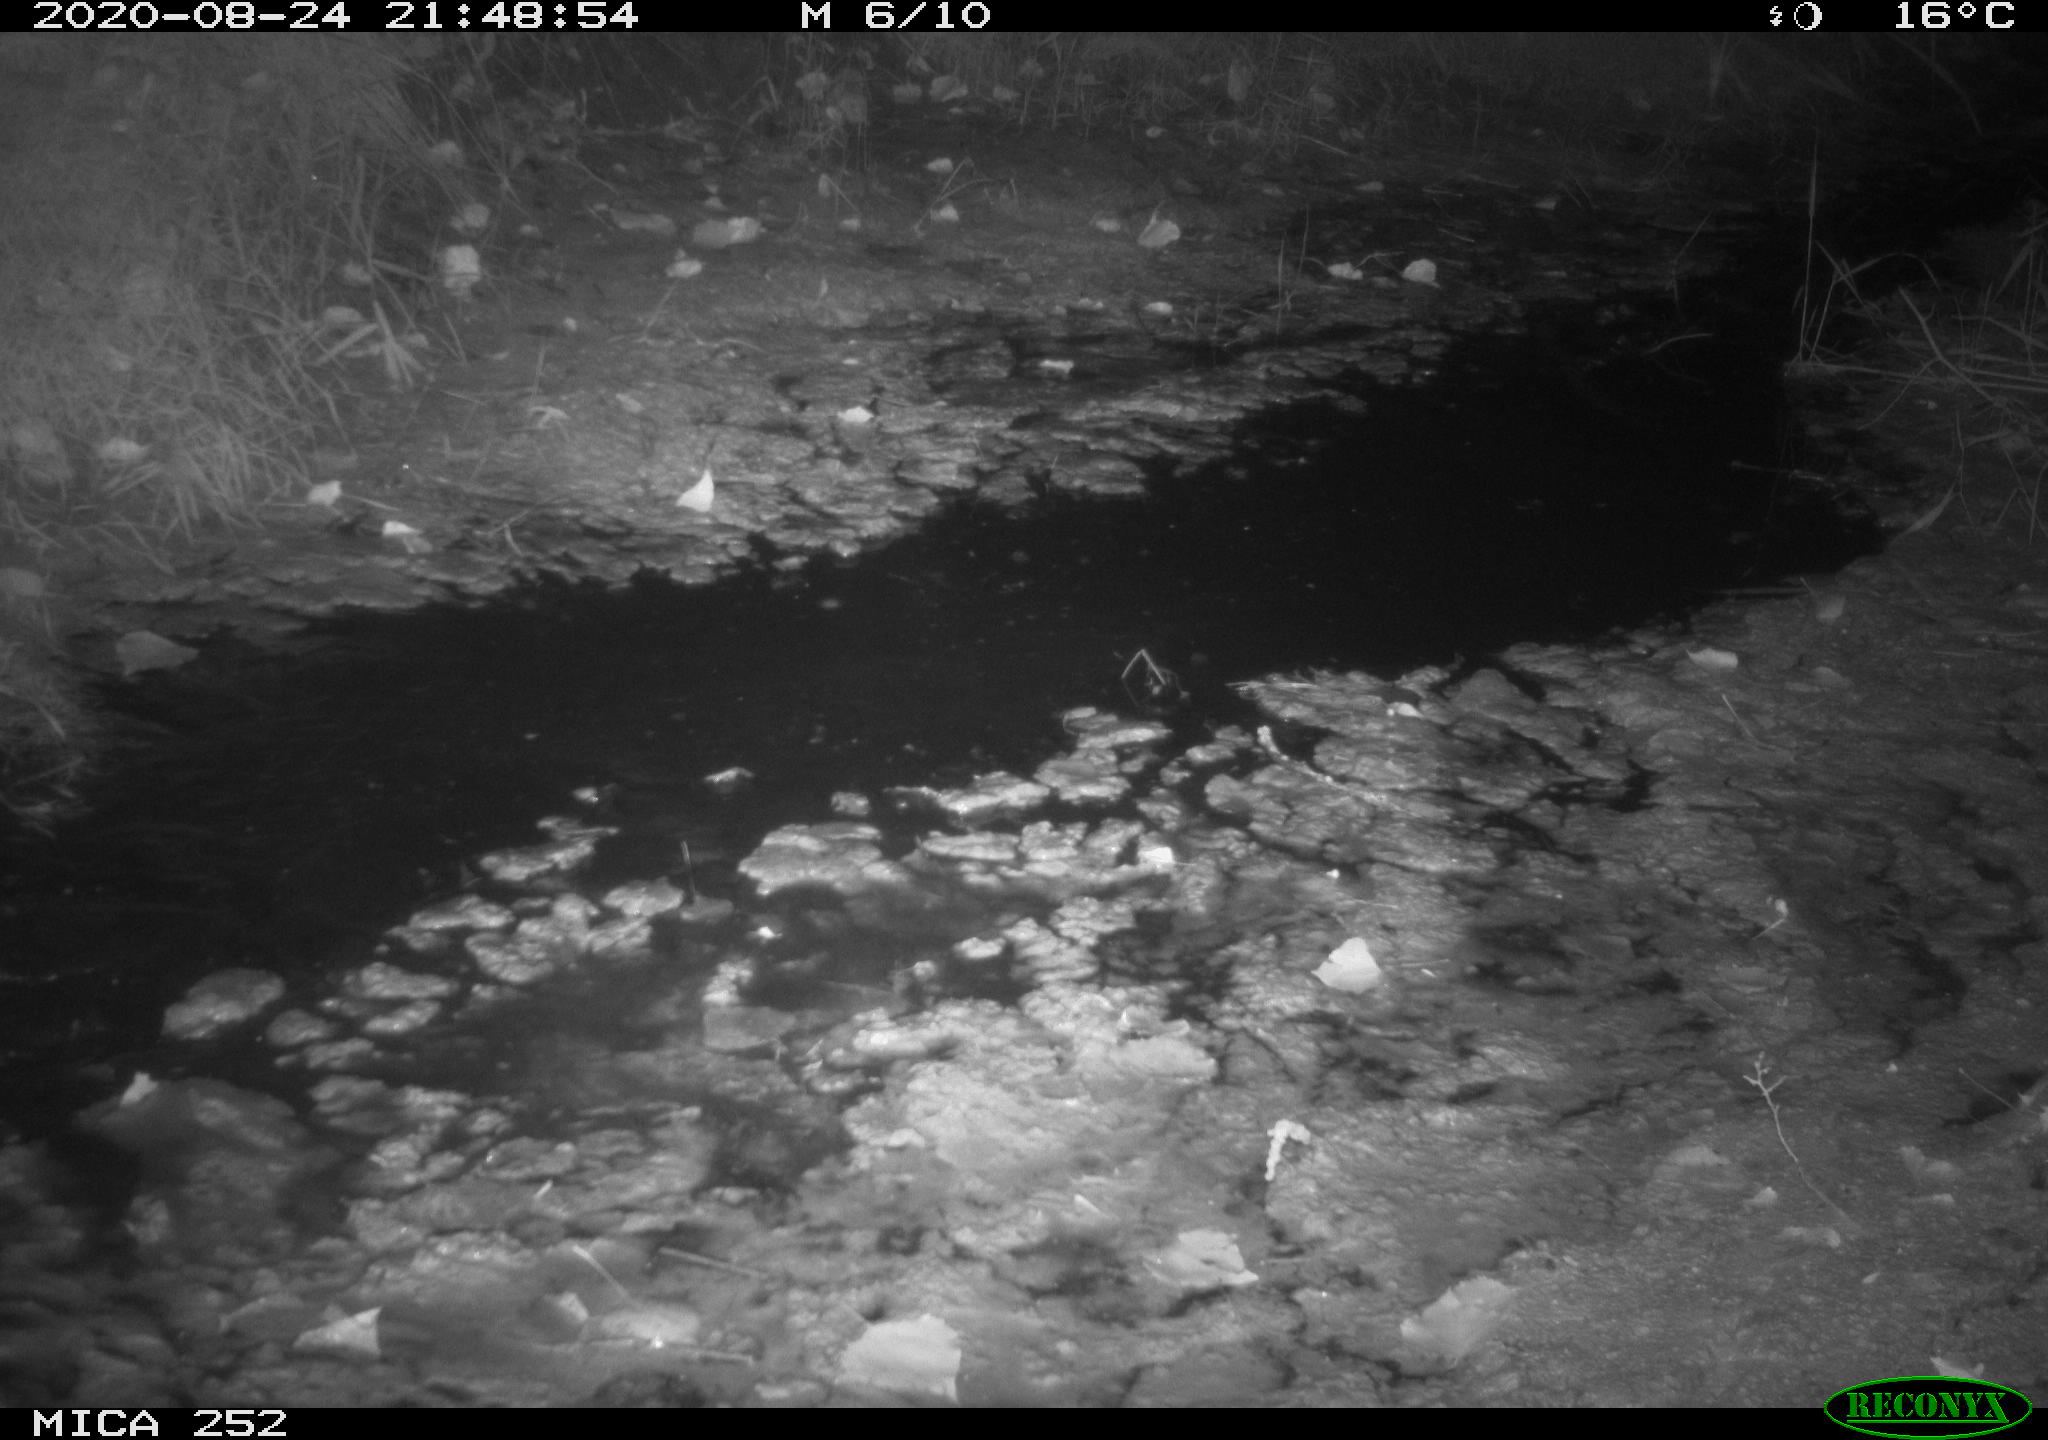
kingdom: Animalia
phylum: Chordata
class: Mammalia
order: Rodentia
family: Castoridae
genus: Castor
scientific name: Castor fiber
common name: Eurasian beaver
